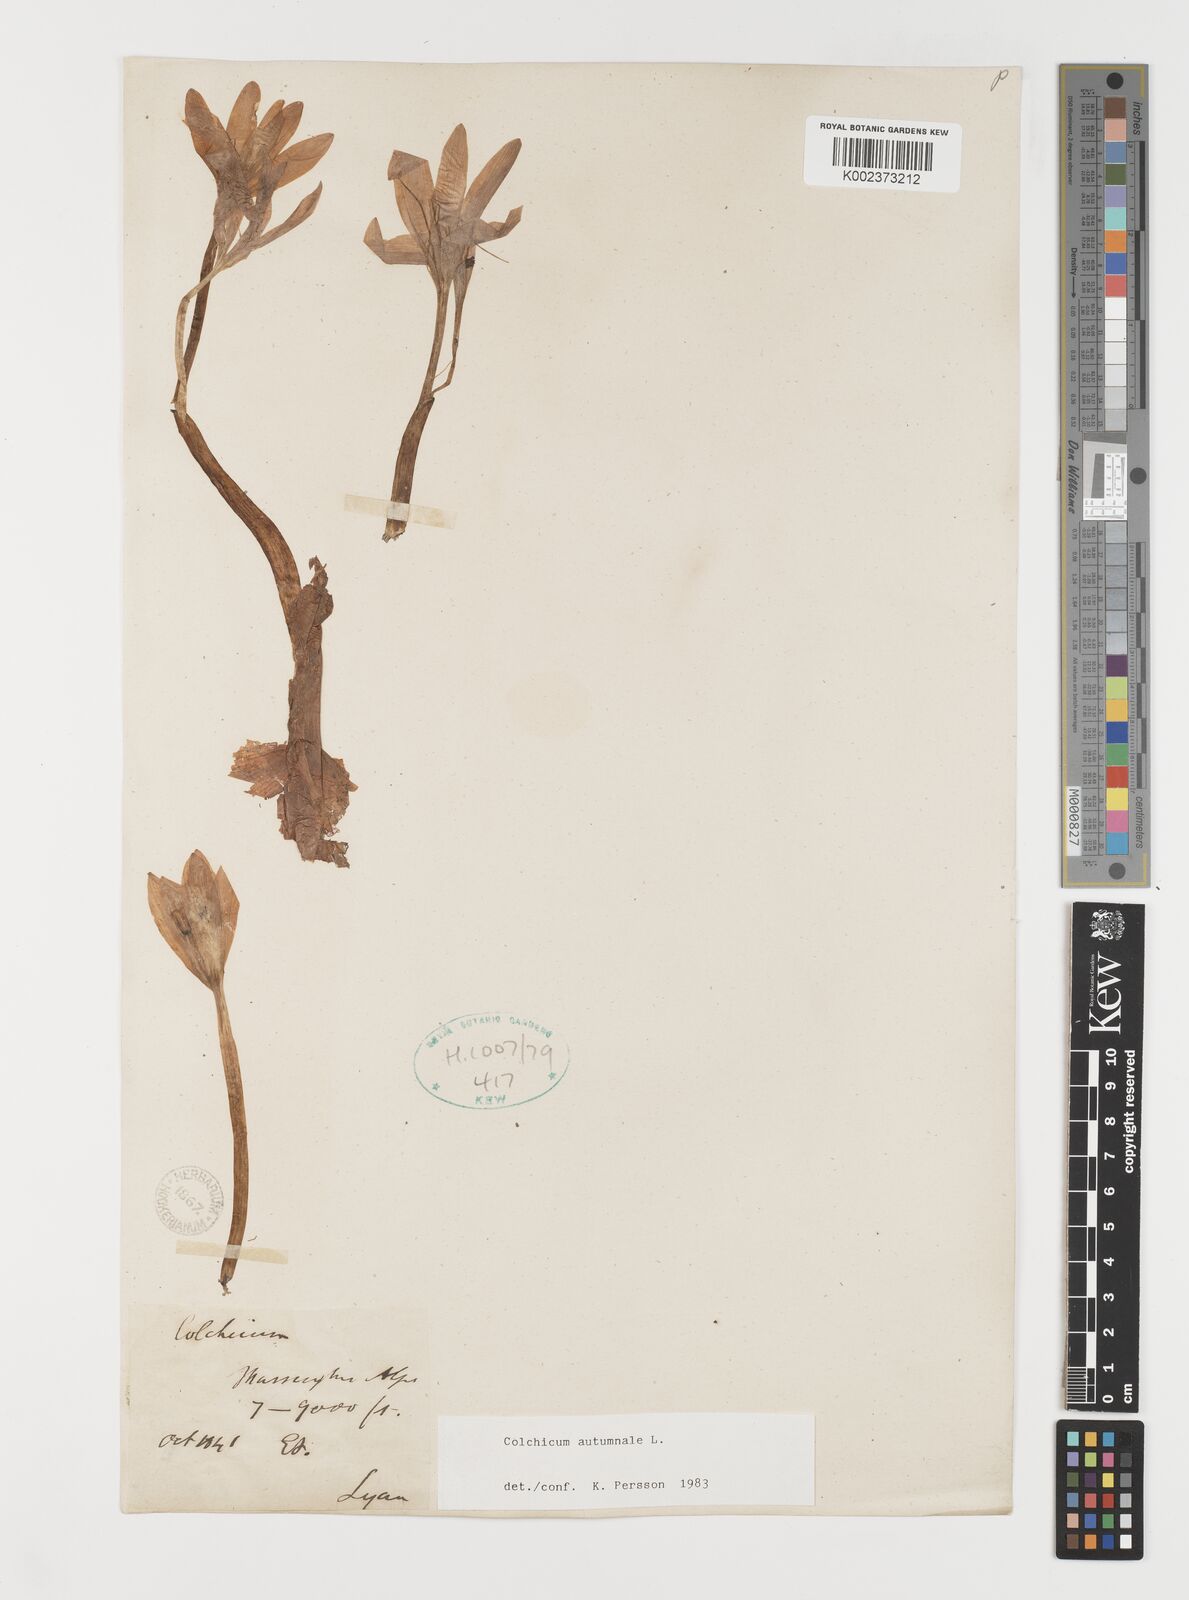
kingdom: Plantae
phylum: Tracheophyta
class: Liliopsida
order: Liliales
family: Colchicaceae
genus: Colchicum
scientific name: Colchicum autumnale
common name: Autumn crocus
